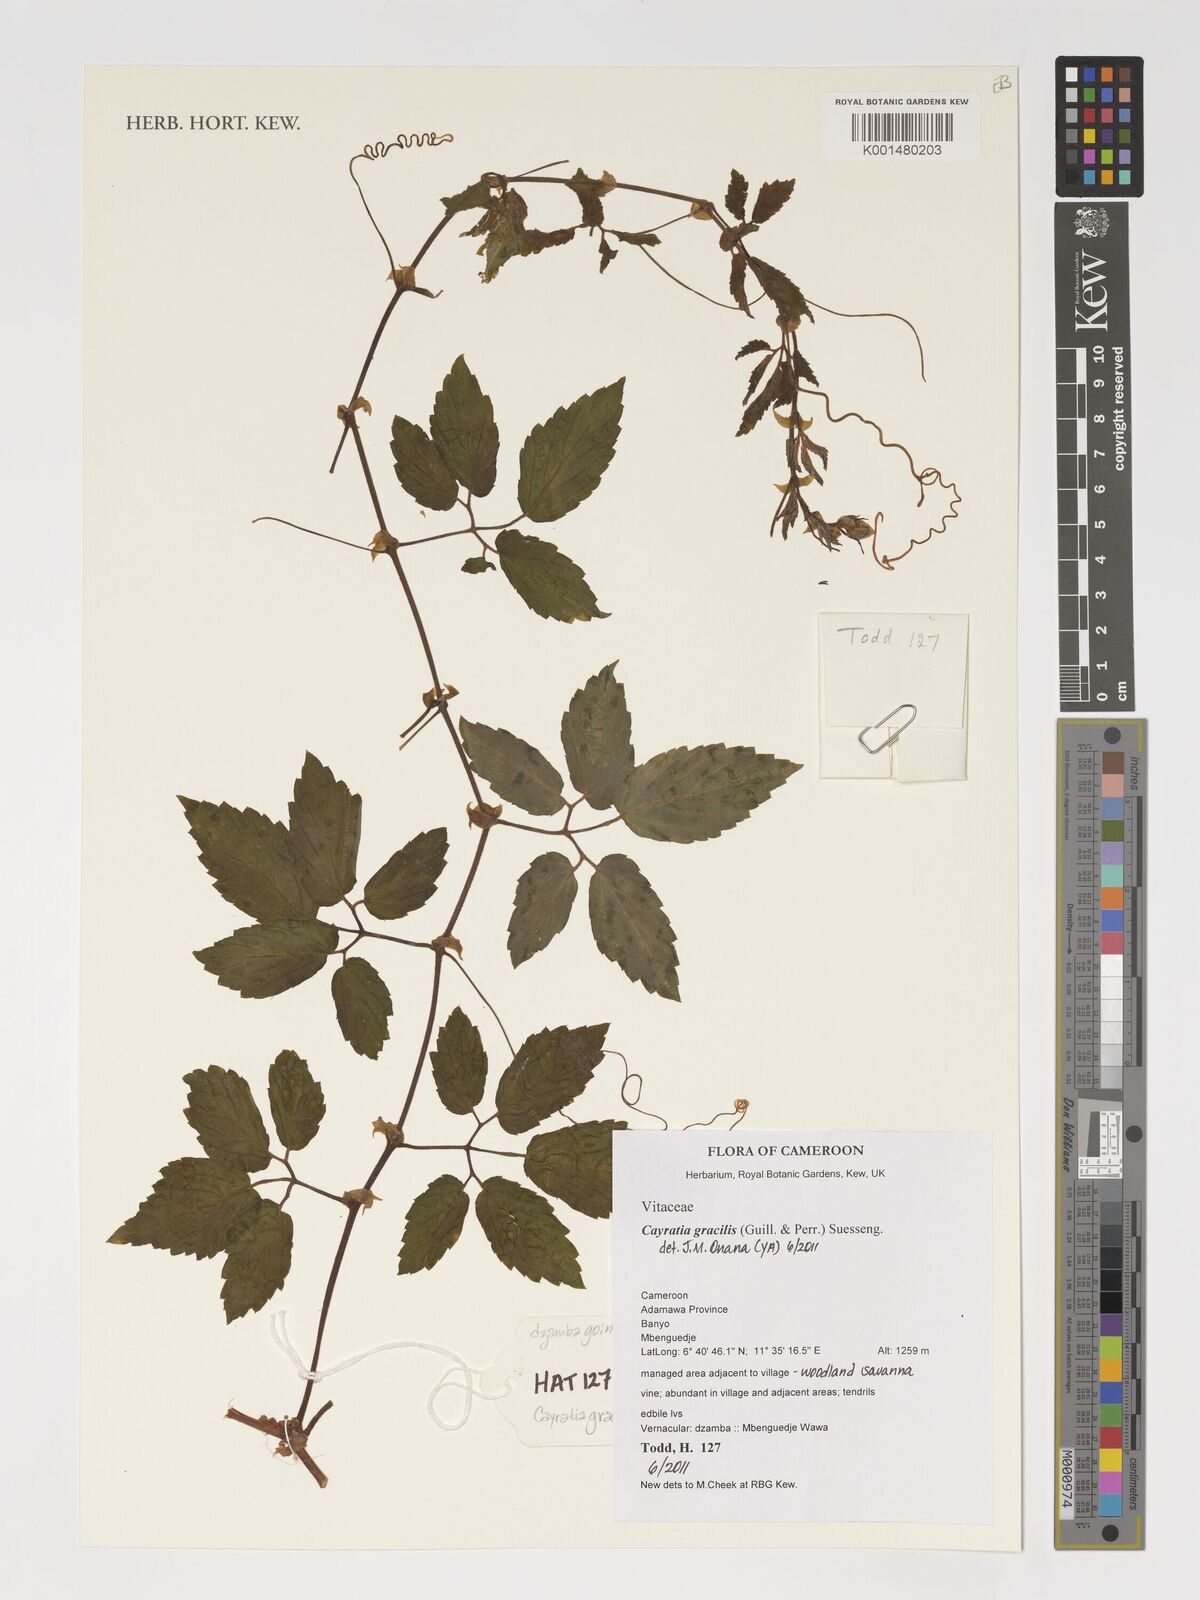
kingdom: Plantae
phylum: Tracheophyta
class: Magnoliopsida
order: Vitales
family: Vitaceae
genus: Afrocayratia
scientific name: Afrocayratia gracilis
